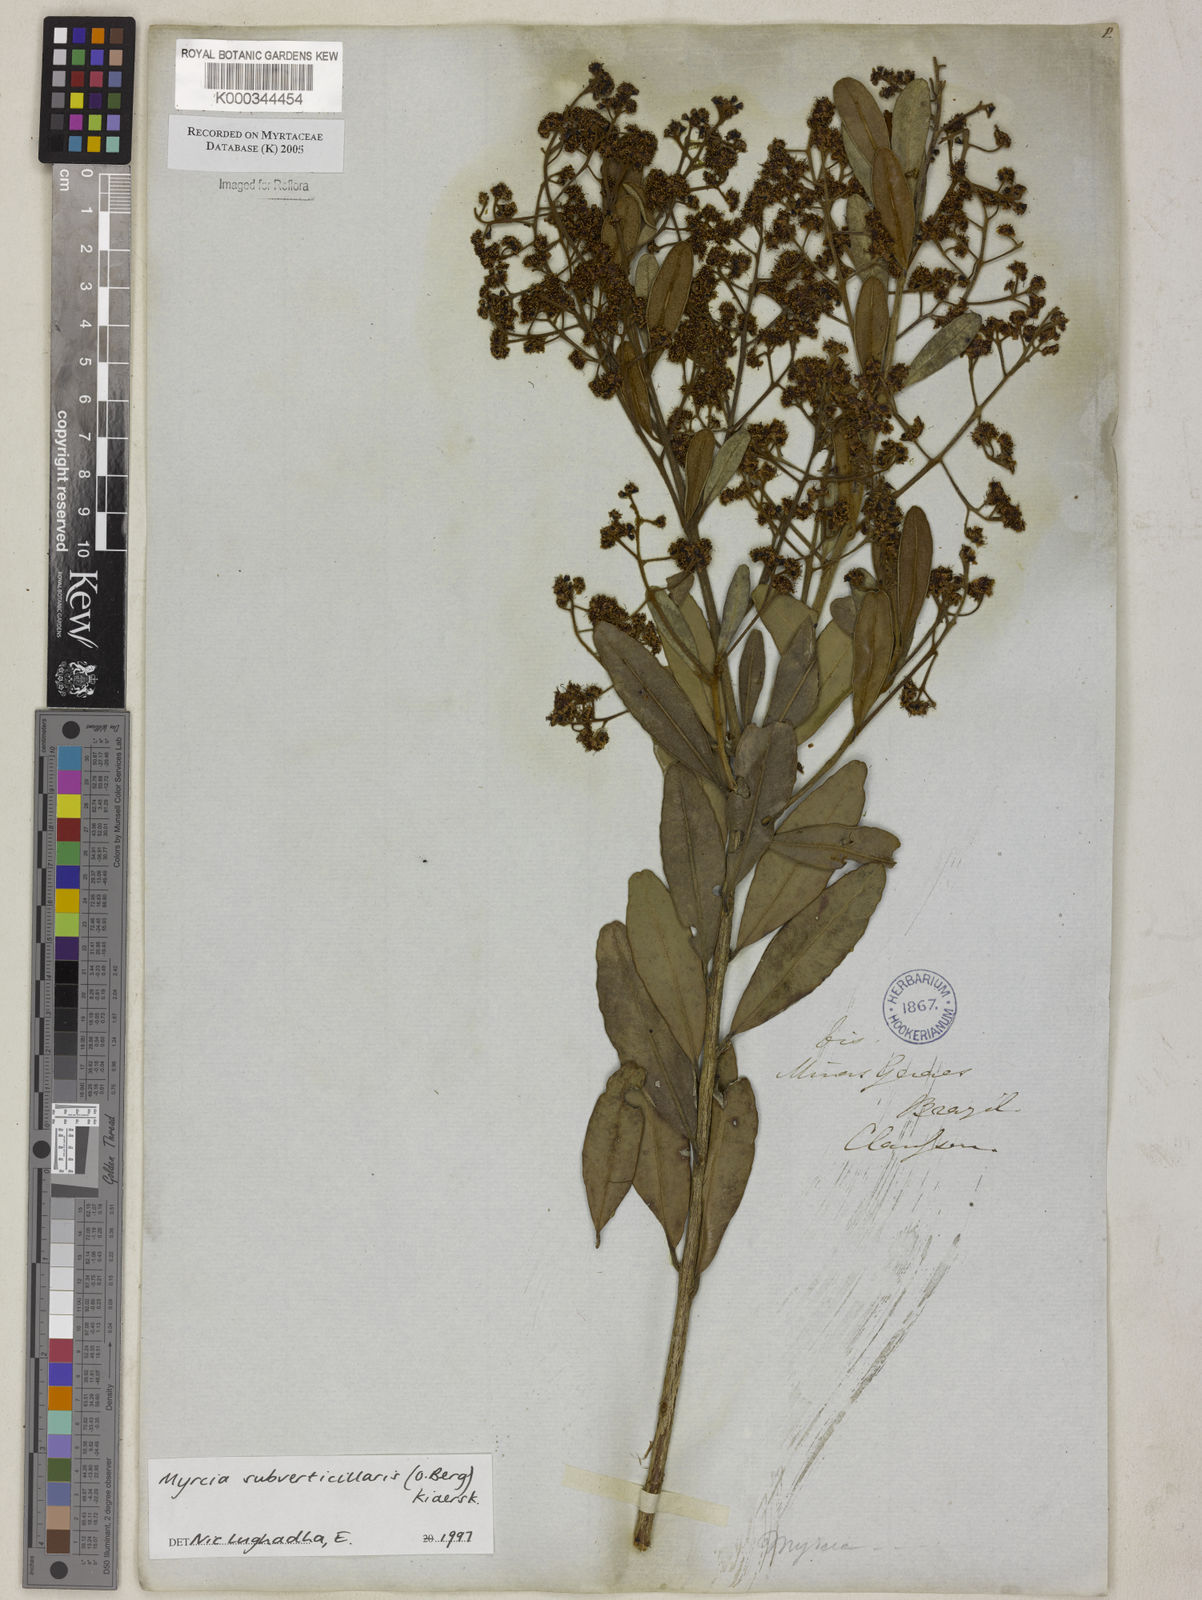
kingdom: Plantae
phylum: Tracheophyta
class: Magnoliopsida
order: Myrtales
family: Myrtaceae
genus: Myrcia
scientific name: Myrcia
